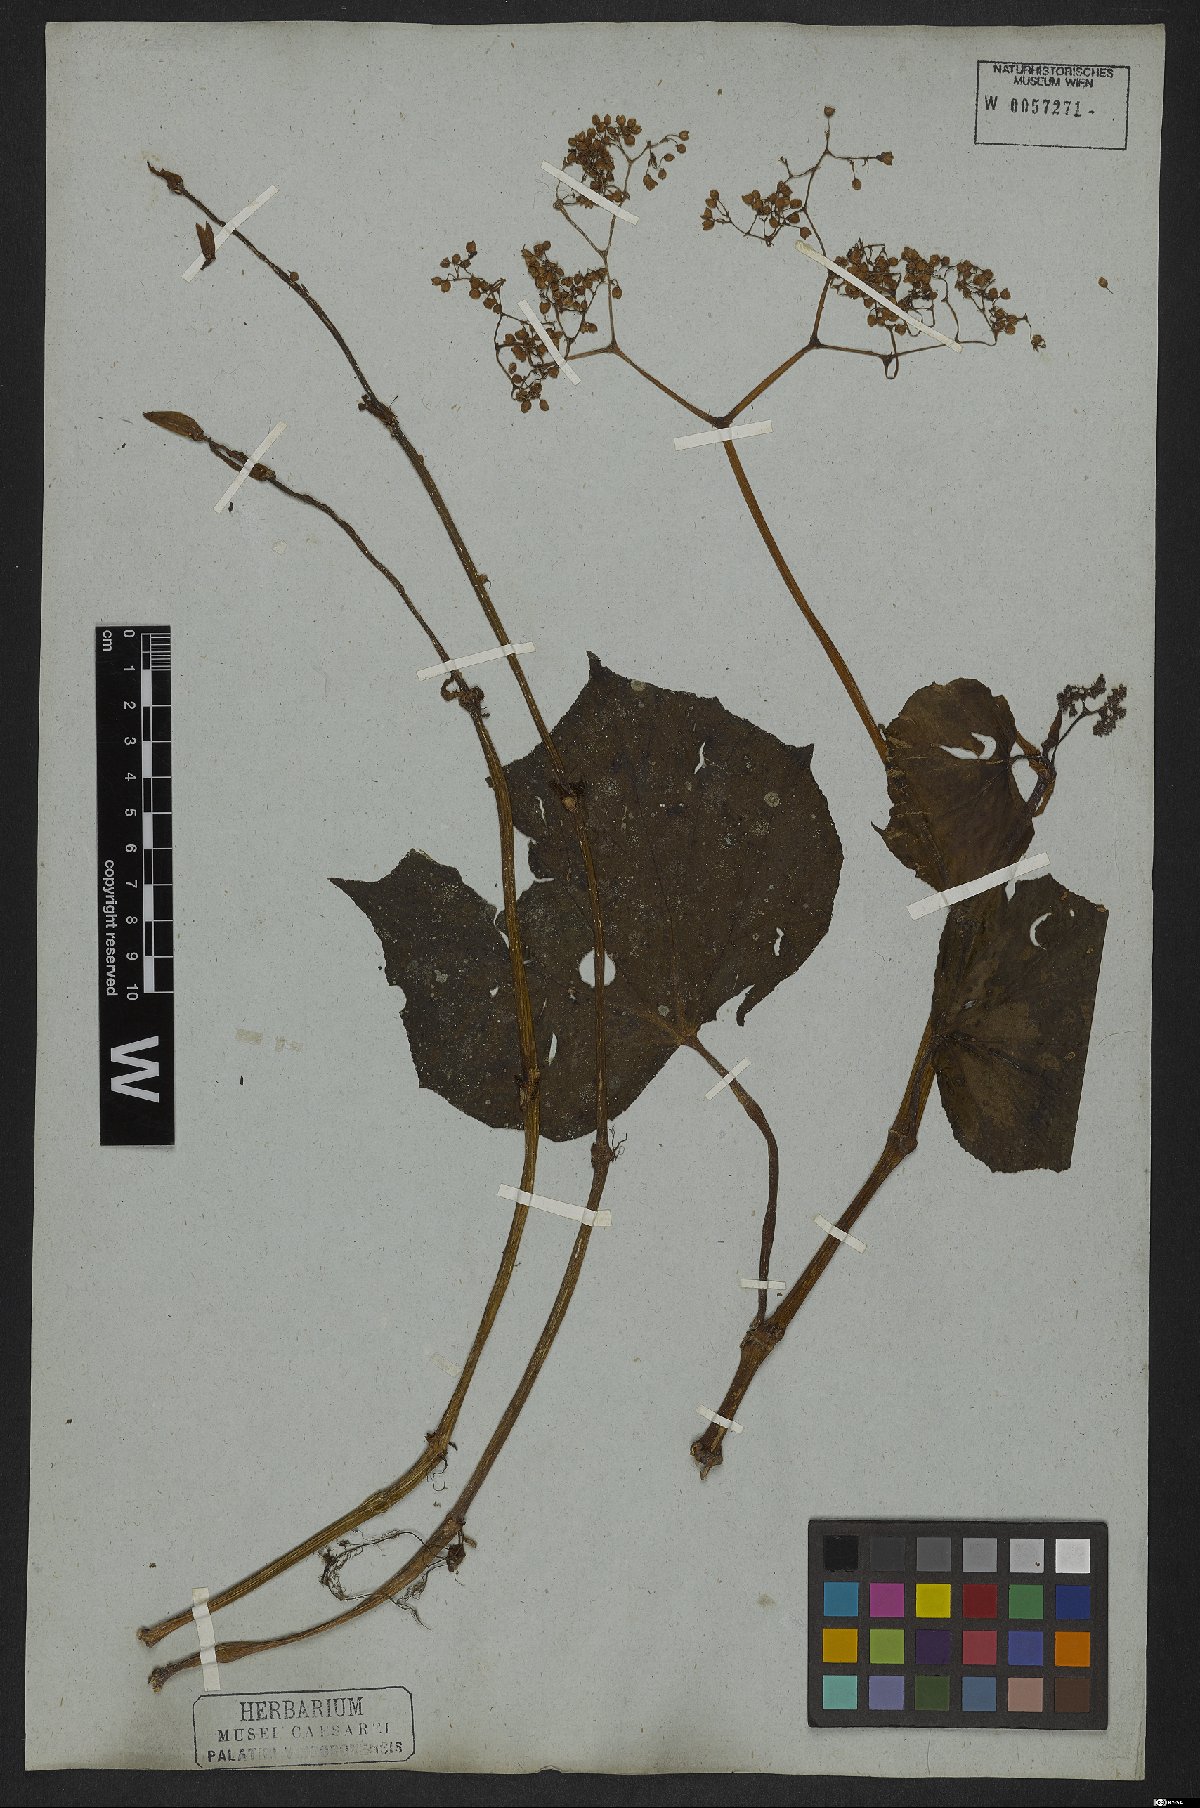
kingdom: Plantae
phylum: Tracheophyta
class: Magnoliopsida
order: Cucurbitales
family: Begoniaceae
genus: Begonia
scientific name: Begonia convolvulacea
